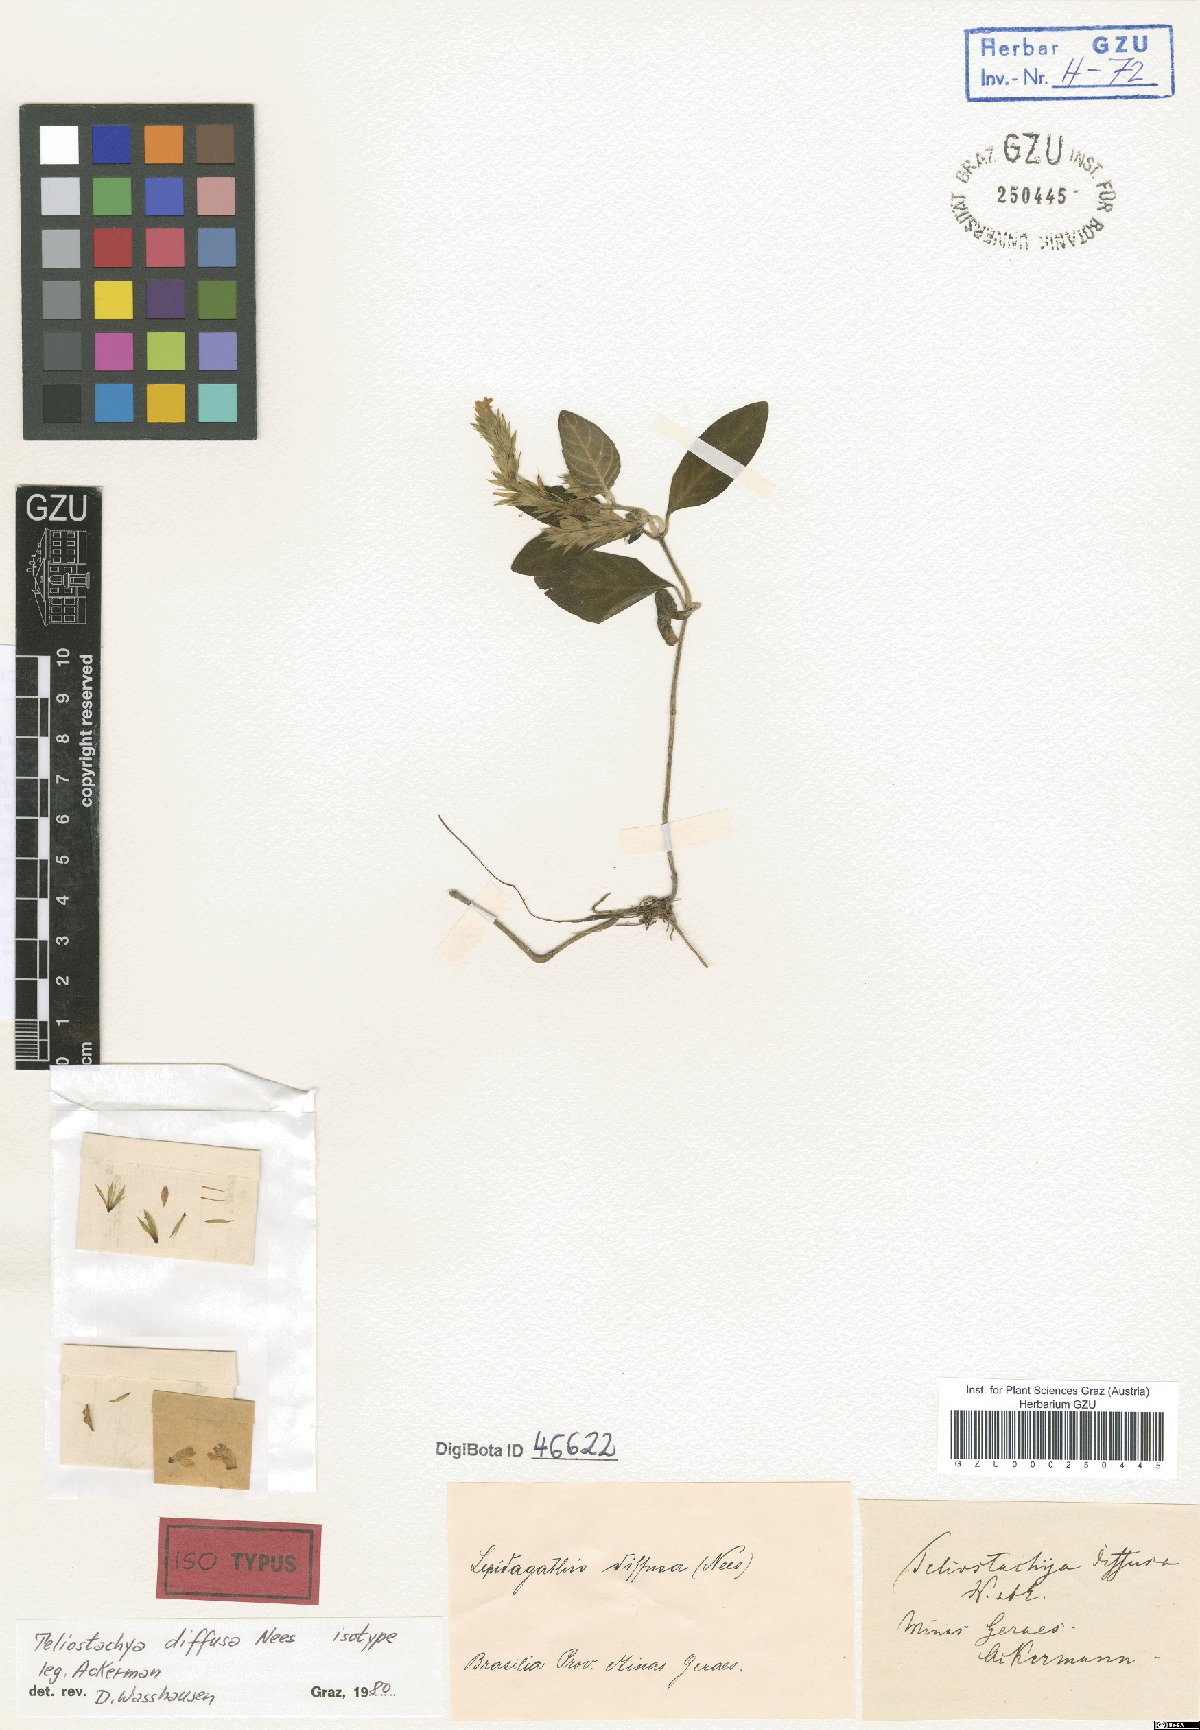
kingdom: Plantae
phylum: Tracheophyta
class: Magnoliopsida
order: Lamiales
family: Acanthaceae
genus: Lepidagathis
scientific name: Lepidagathis kameyamana
